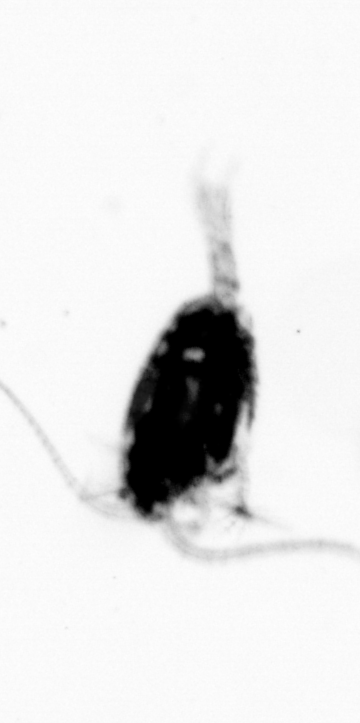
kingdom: Animalia
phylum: Arthropoda
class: Copepoda
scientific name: Copepoda
